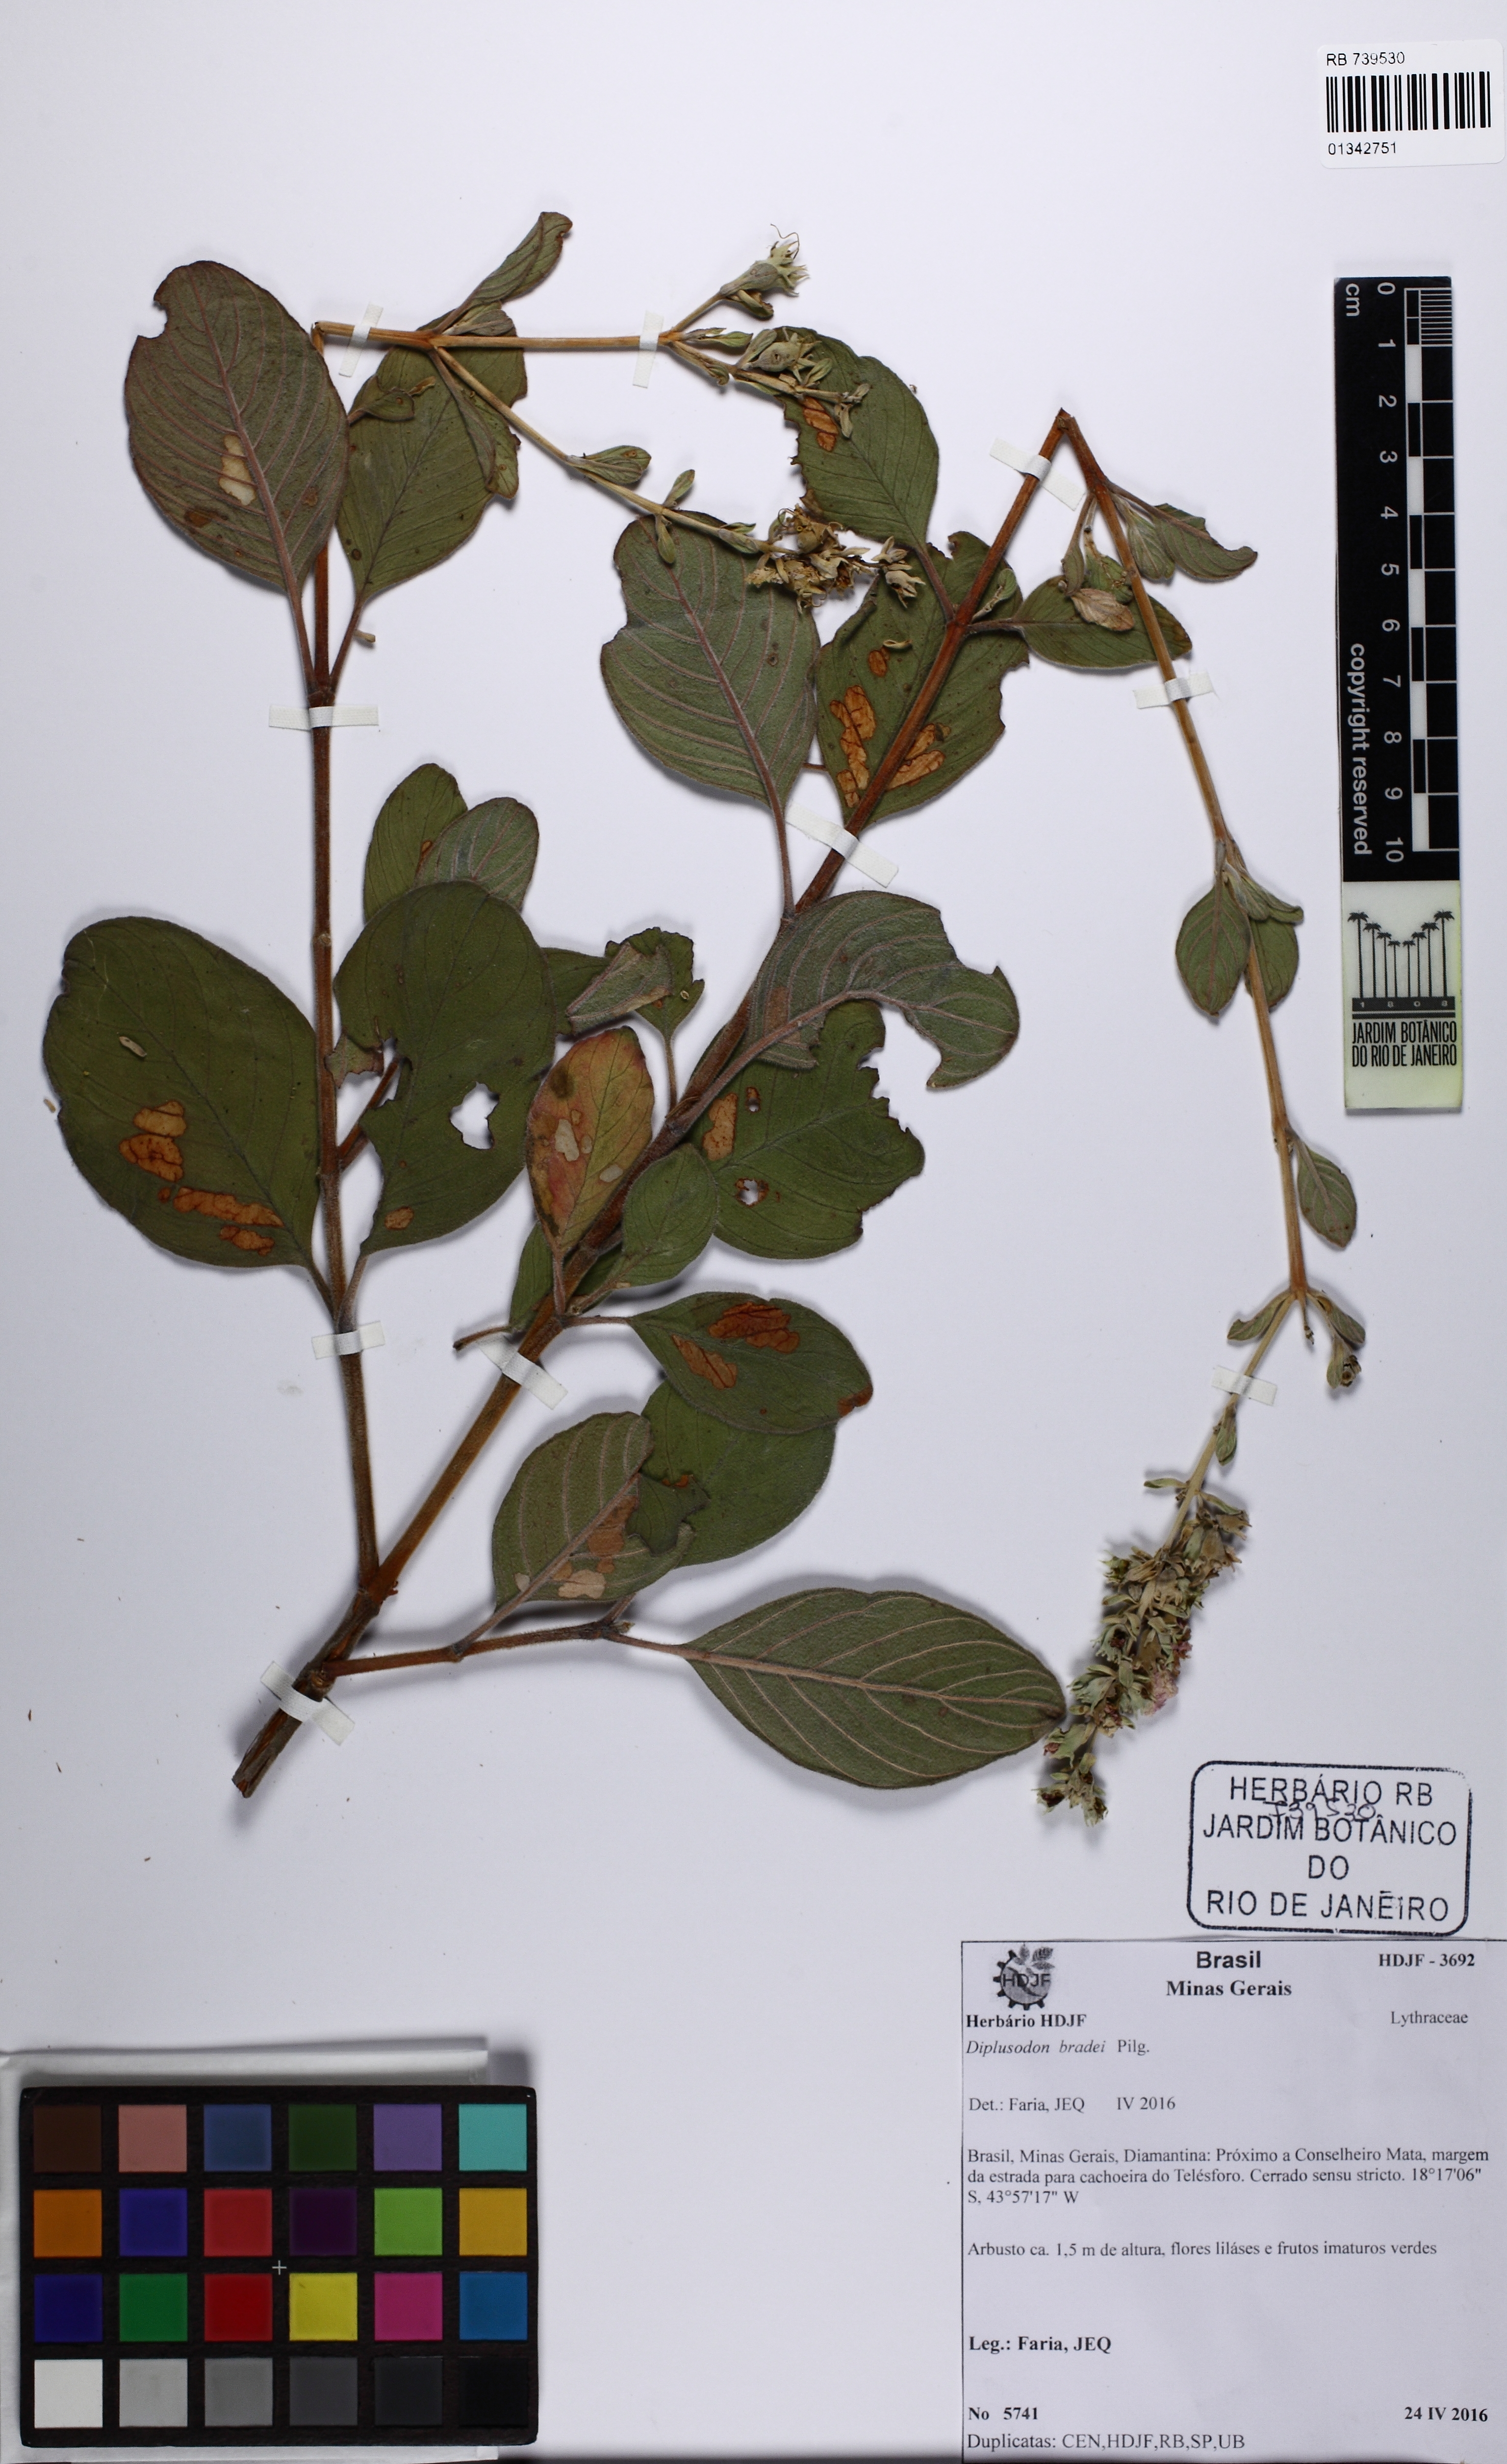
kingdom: Plantae
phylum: Tracheophyta
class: Magnoliopsida
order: Myrtales
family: Lythraceae
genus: Diplusodon
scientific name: Diplusodon bradei
